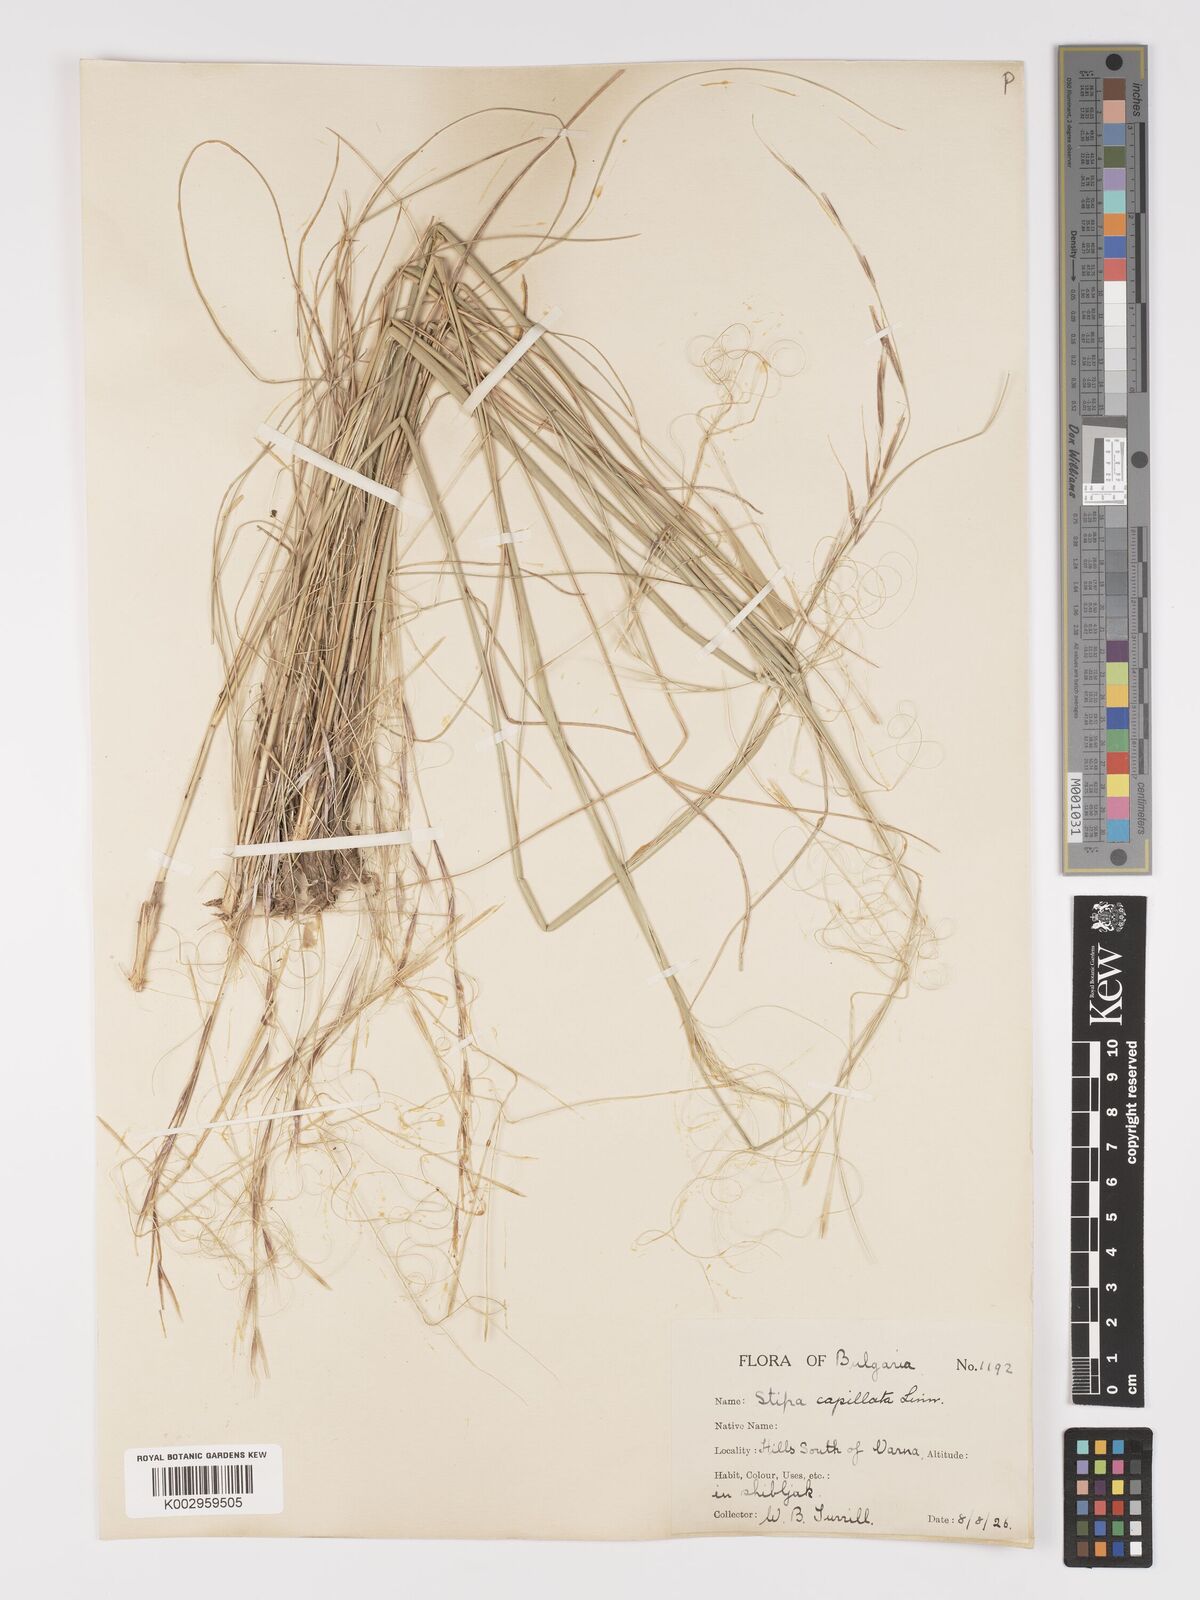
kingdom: Plantae
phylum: Tracheophyta
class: Liliopsida
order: Poales
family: Poaceae
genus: Stipa
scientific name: Stipa capillata
